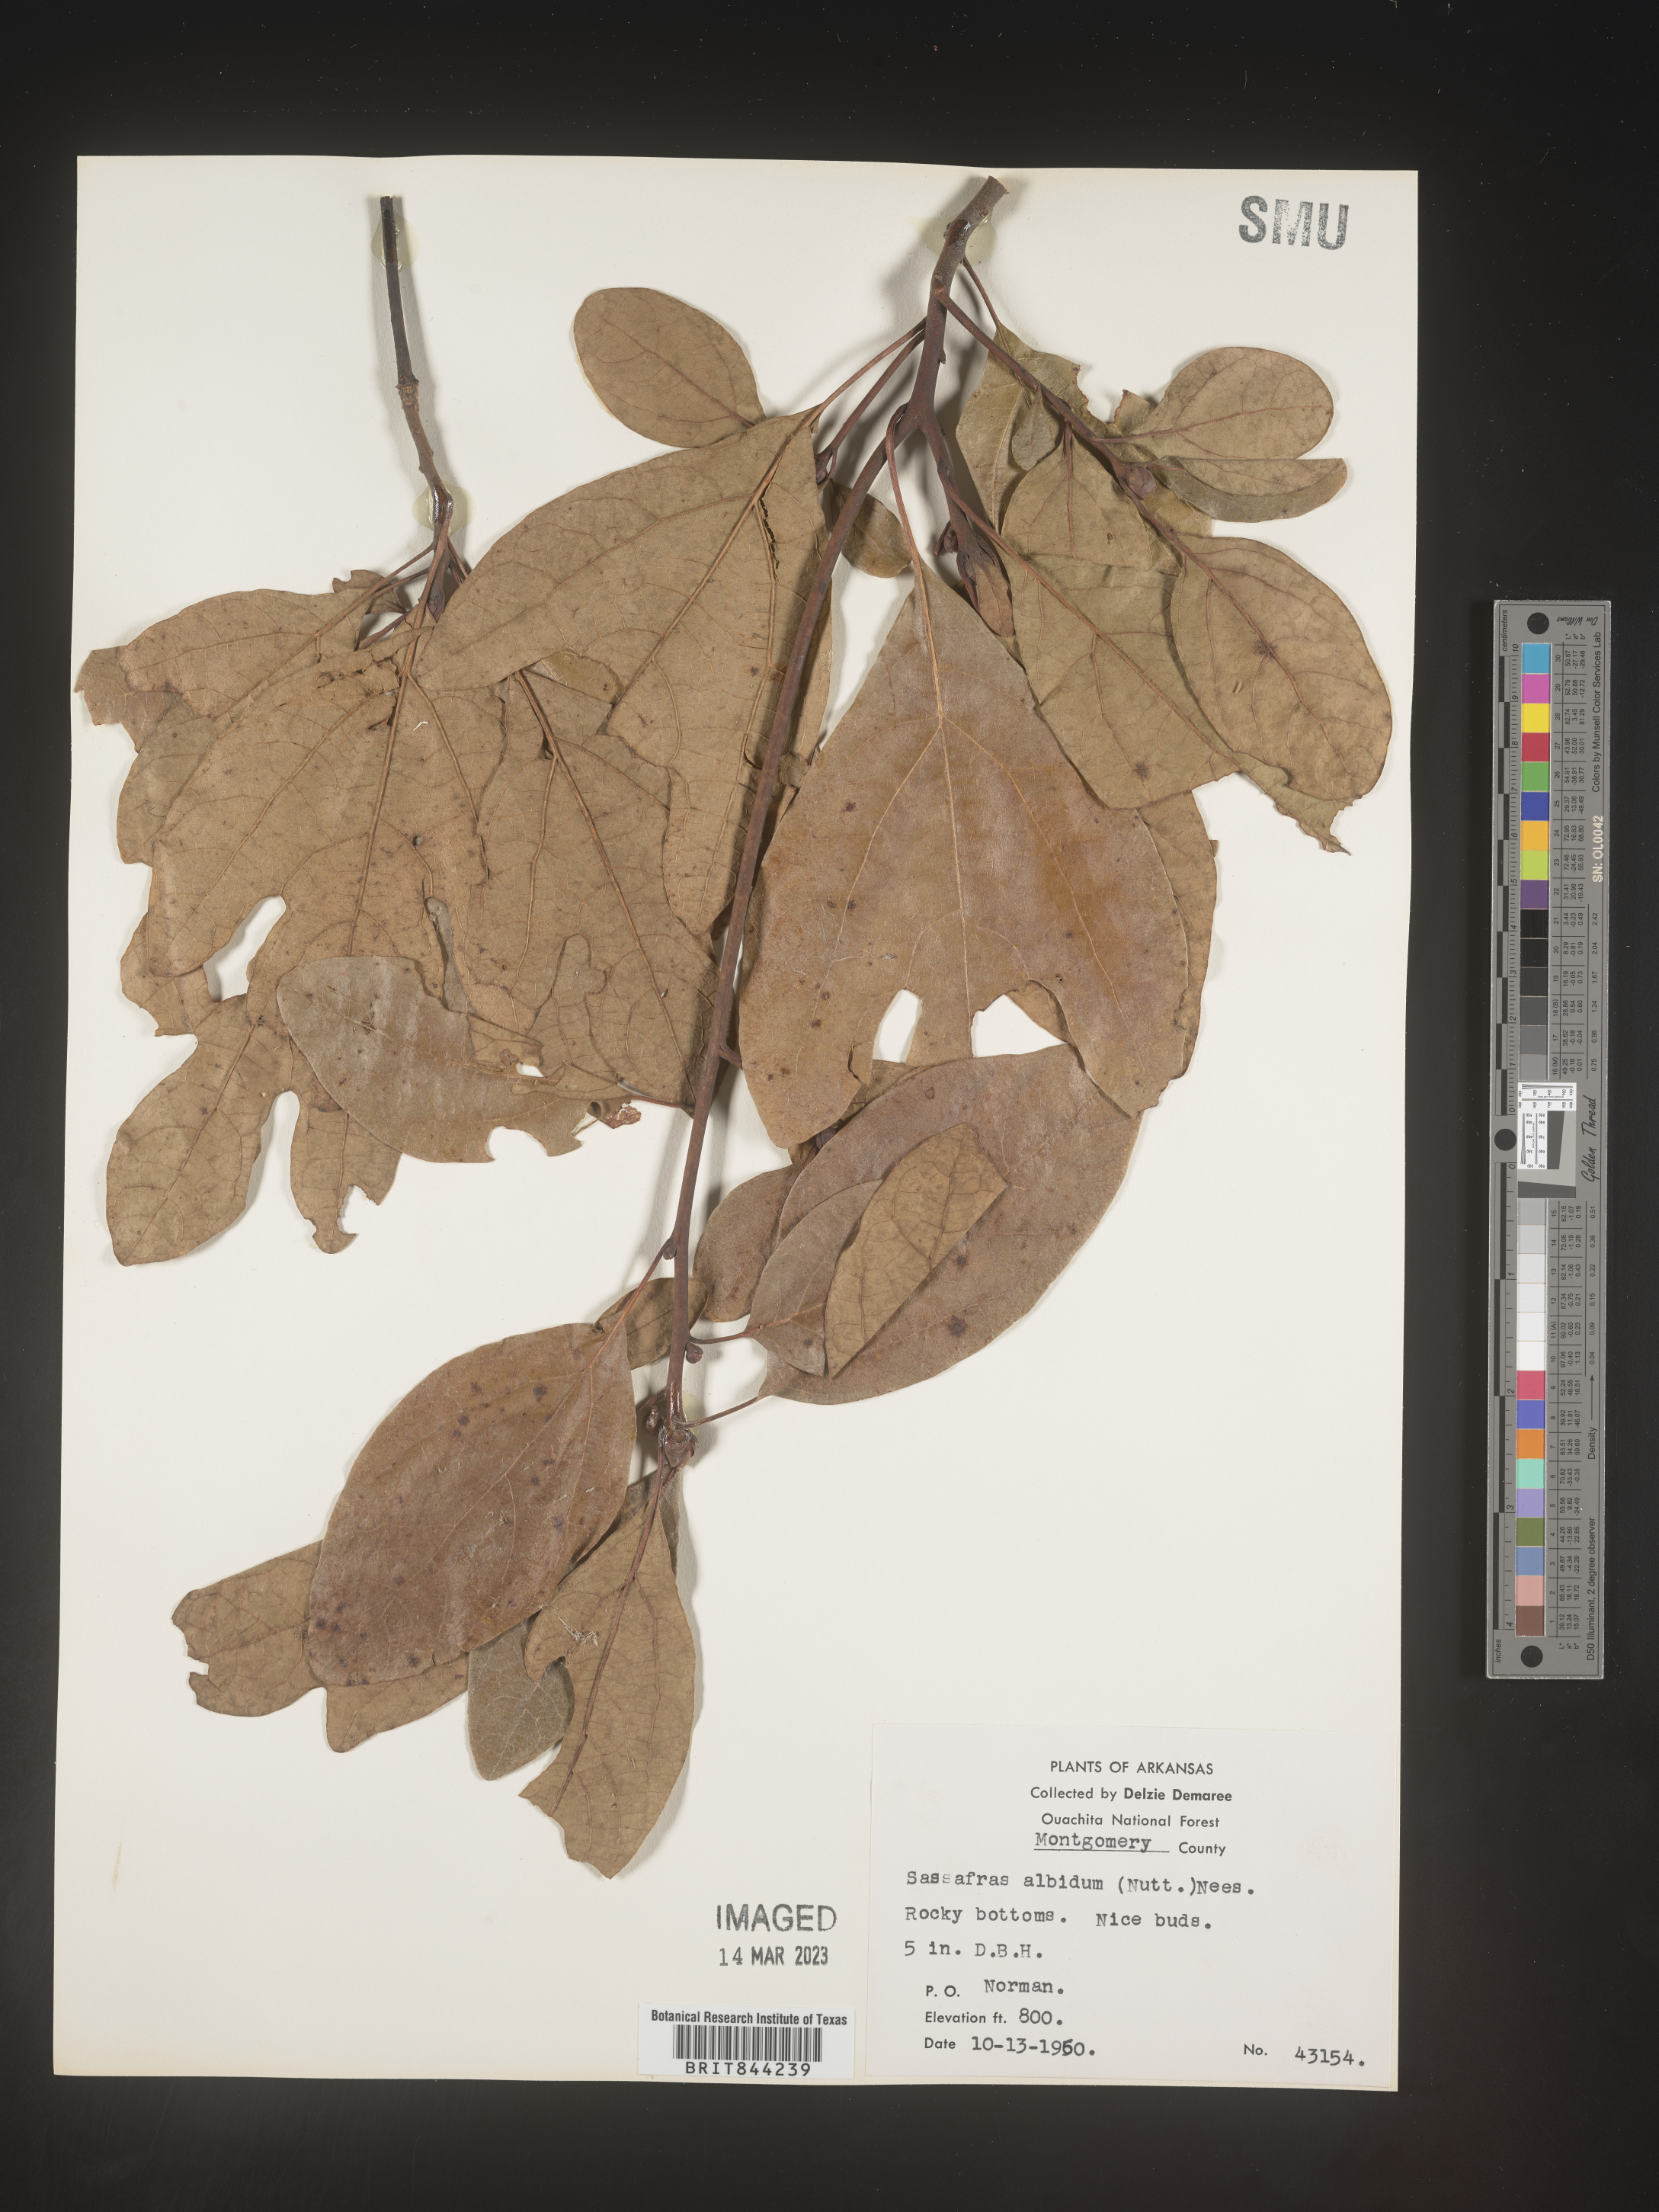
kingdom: Plantae
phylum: Tracheophyta
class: Magnoliopsida
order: Laurales
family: Lauraceae
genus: Sassafras
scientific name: Sassafras albidum
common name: Sassafras
